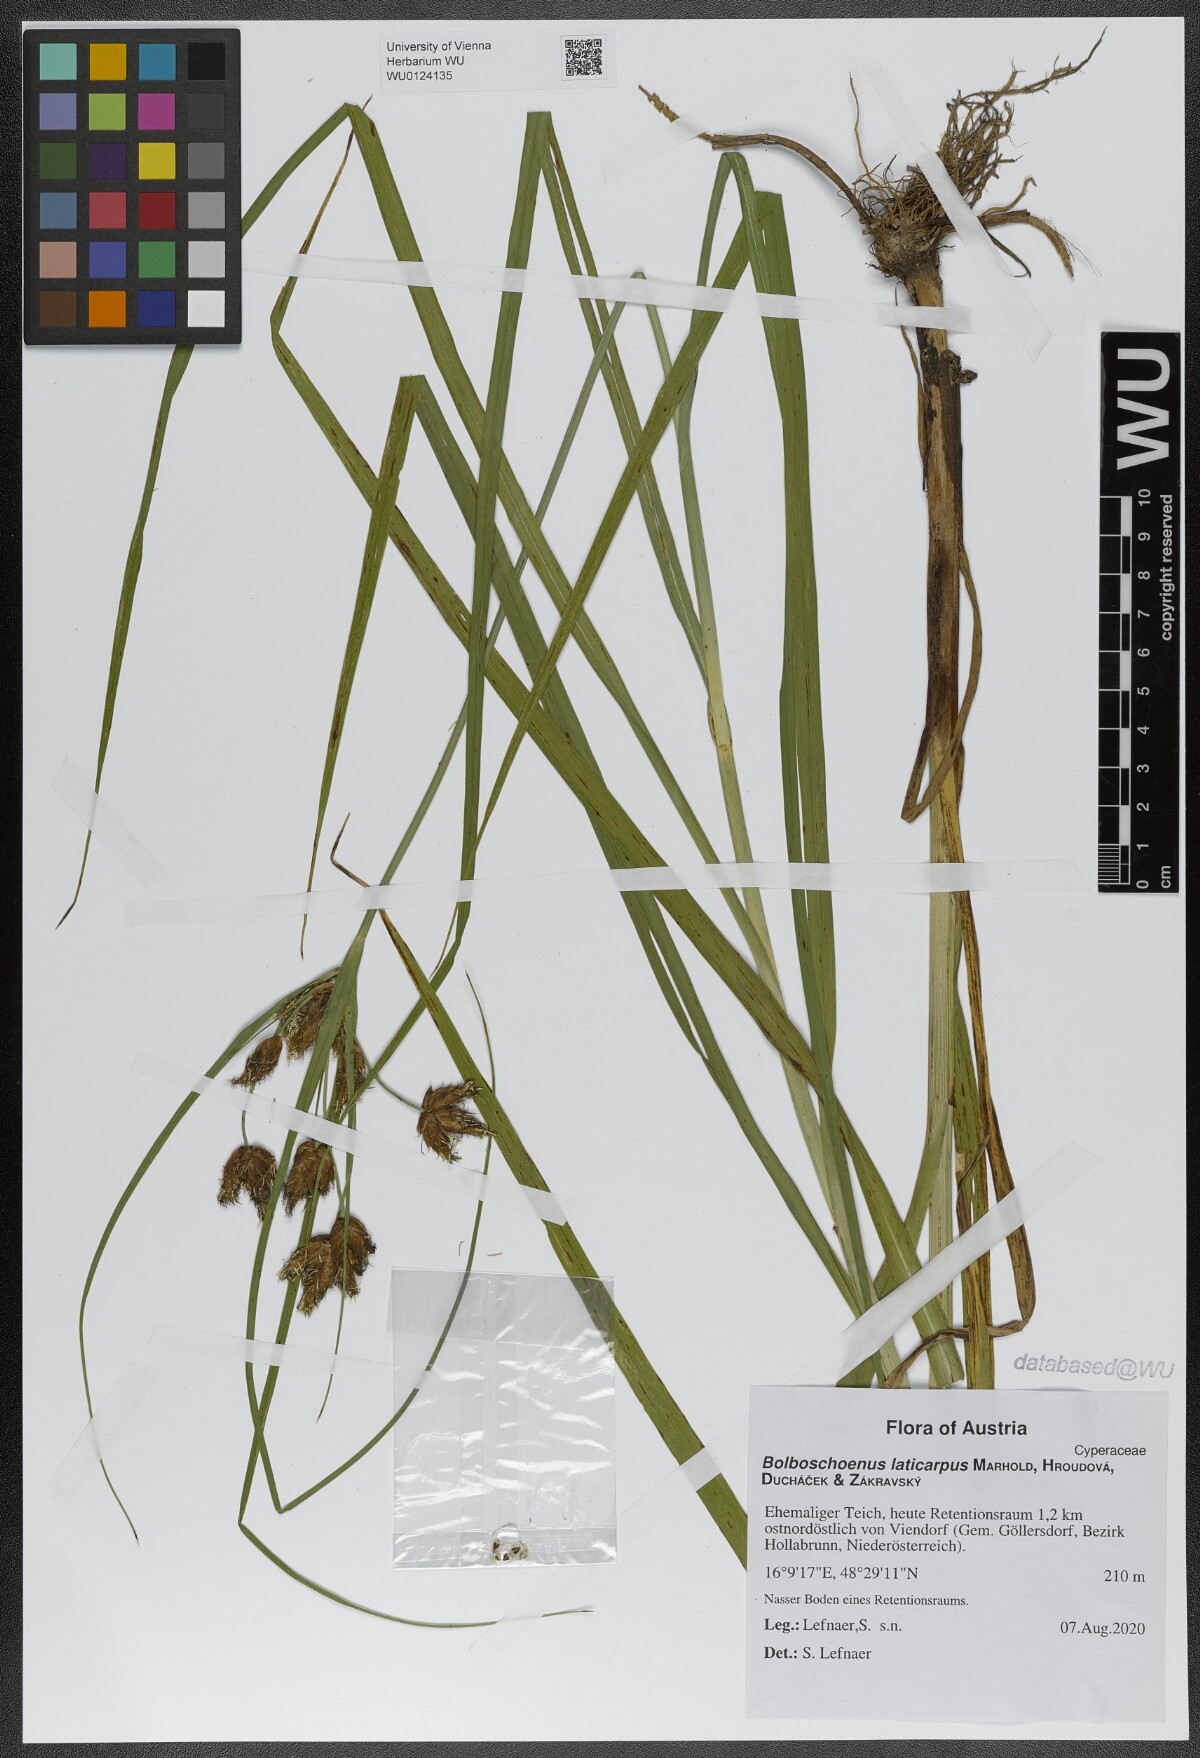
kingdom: Plantae
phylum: Tracheophyta
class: Liliopsida
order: Poales
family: Cyperaceae
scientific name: Cyperaceae
